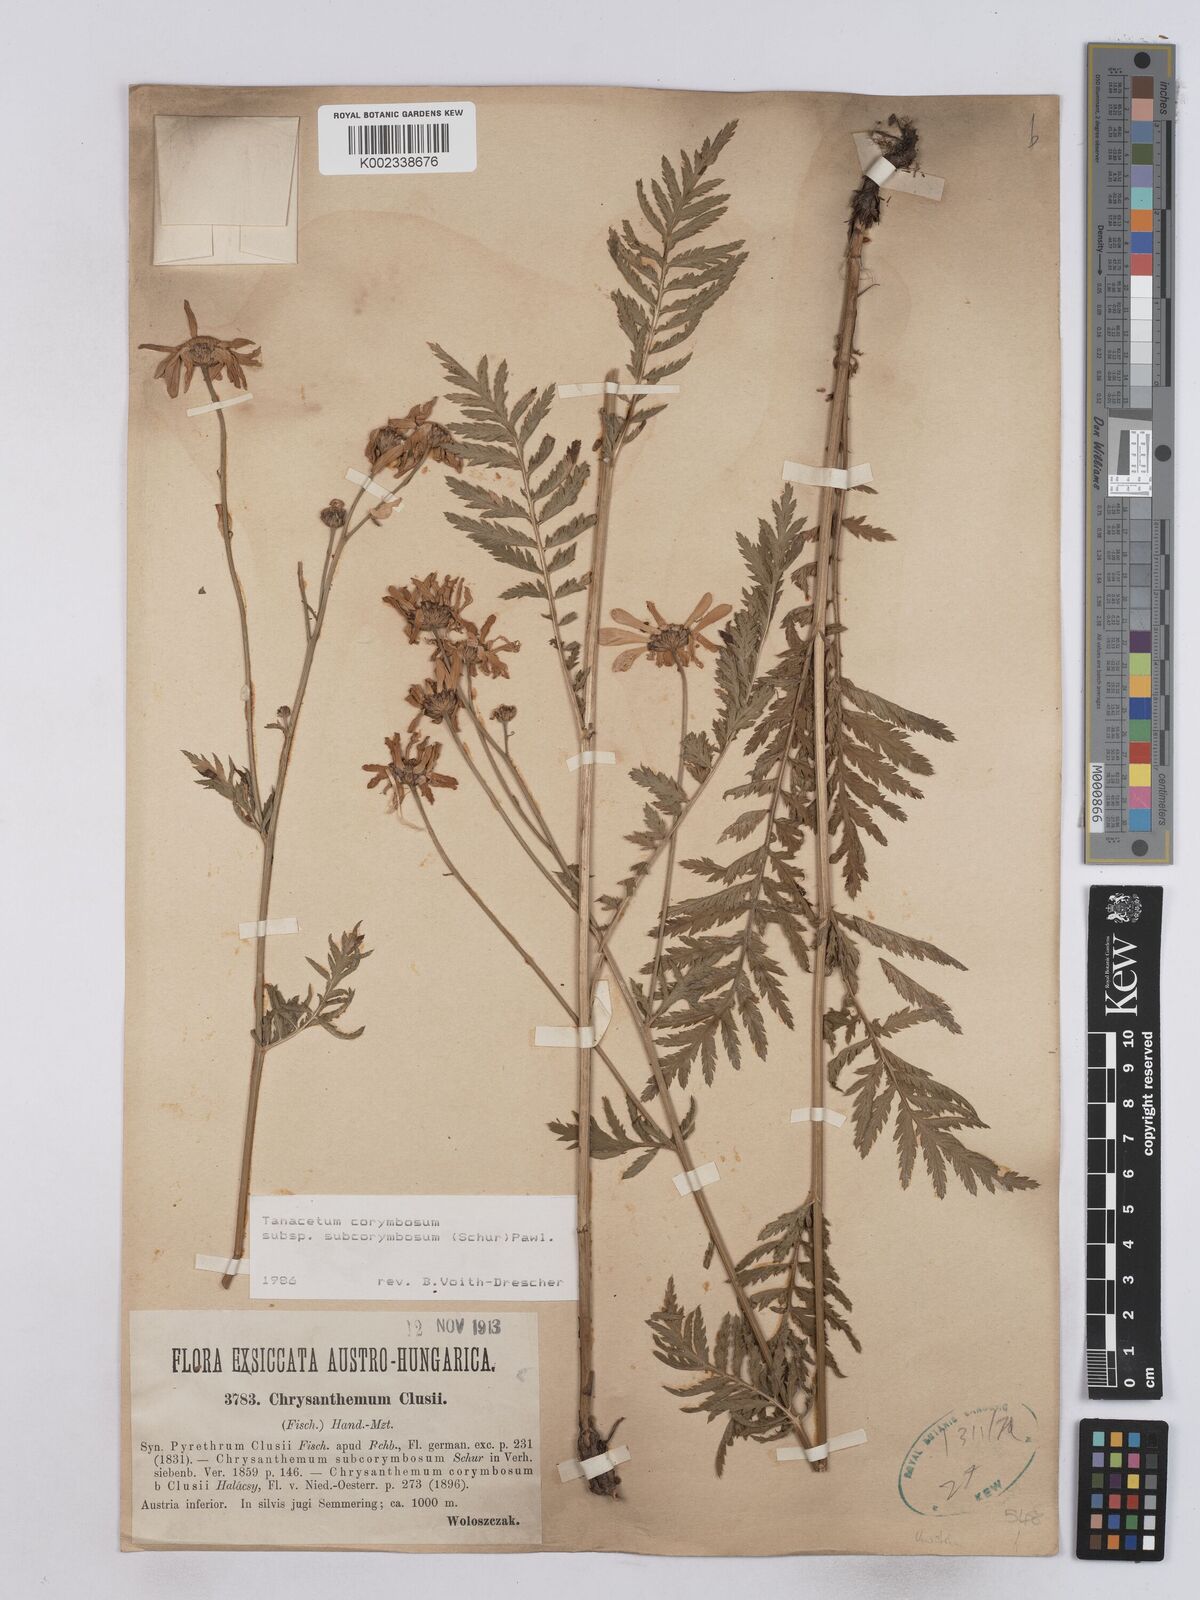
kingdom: Plantae
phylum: Tracheophyta
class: Magnoliopsida
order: Asterales
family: Asteraceae
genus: Tanacetum
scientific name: Tanacetum corymbosum
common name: Scentless feverfew
